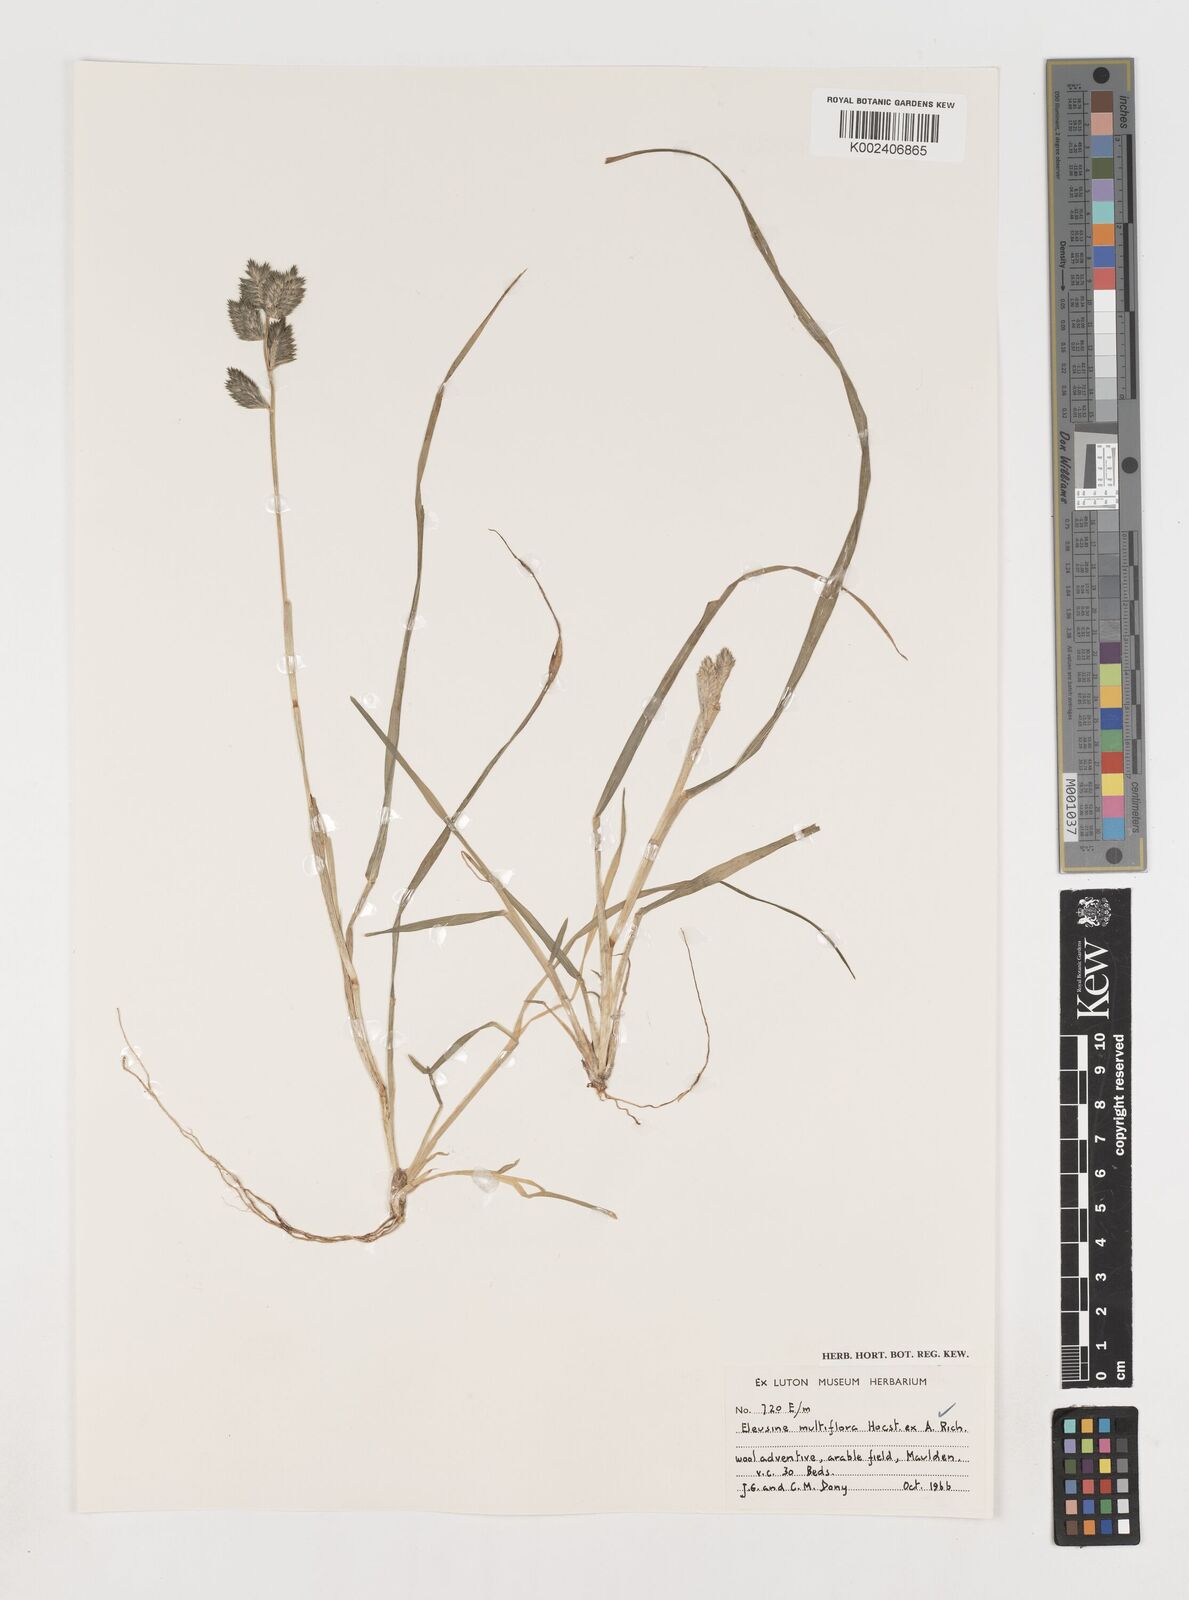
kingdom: Plantae
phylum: Tracheophyta
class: Liliopsida
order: Poales
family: Poaceae
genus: Eleusine
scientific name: Eleusine multiflora
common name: Fat-spiked yard-grass
